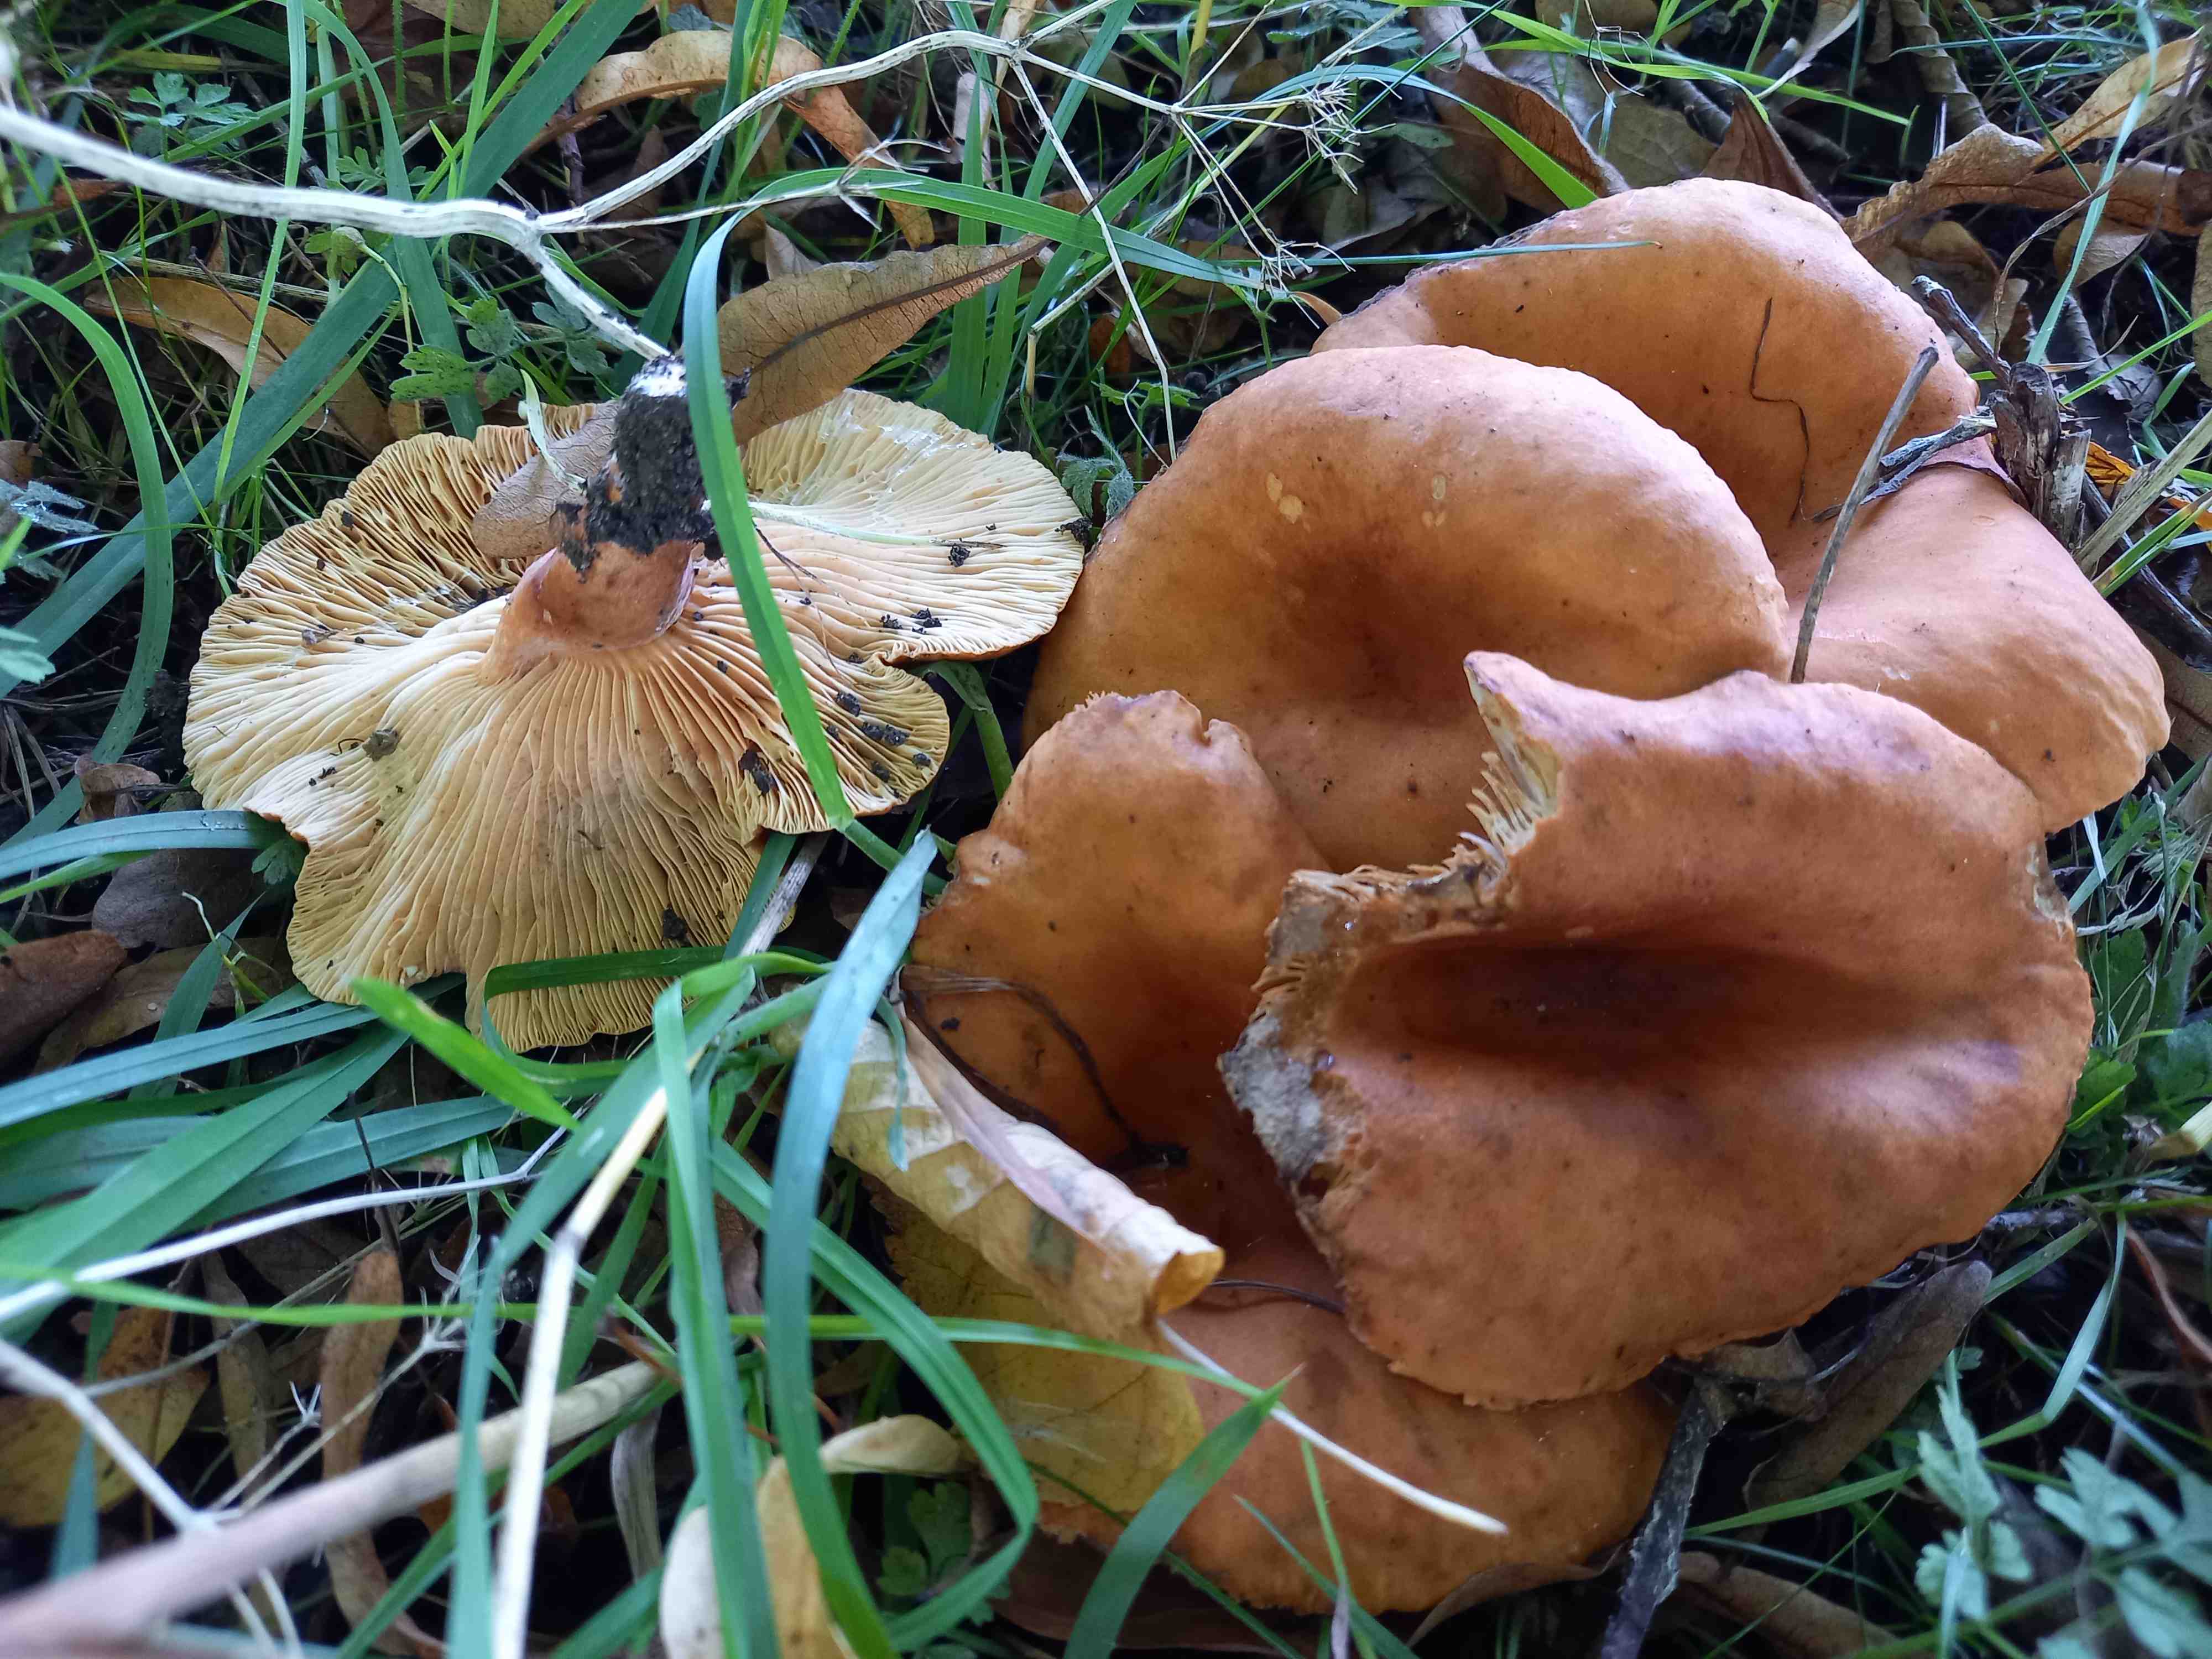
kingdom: Fungi
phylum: Basidiomycota
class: Agaricomycetes
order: Russulales
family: Russulaceae
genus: Lactarius
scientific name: Lactarius fulvissimus
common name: ræve-mælkehat
